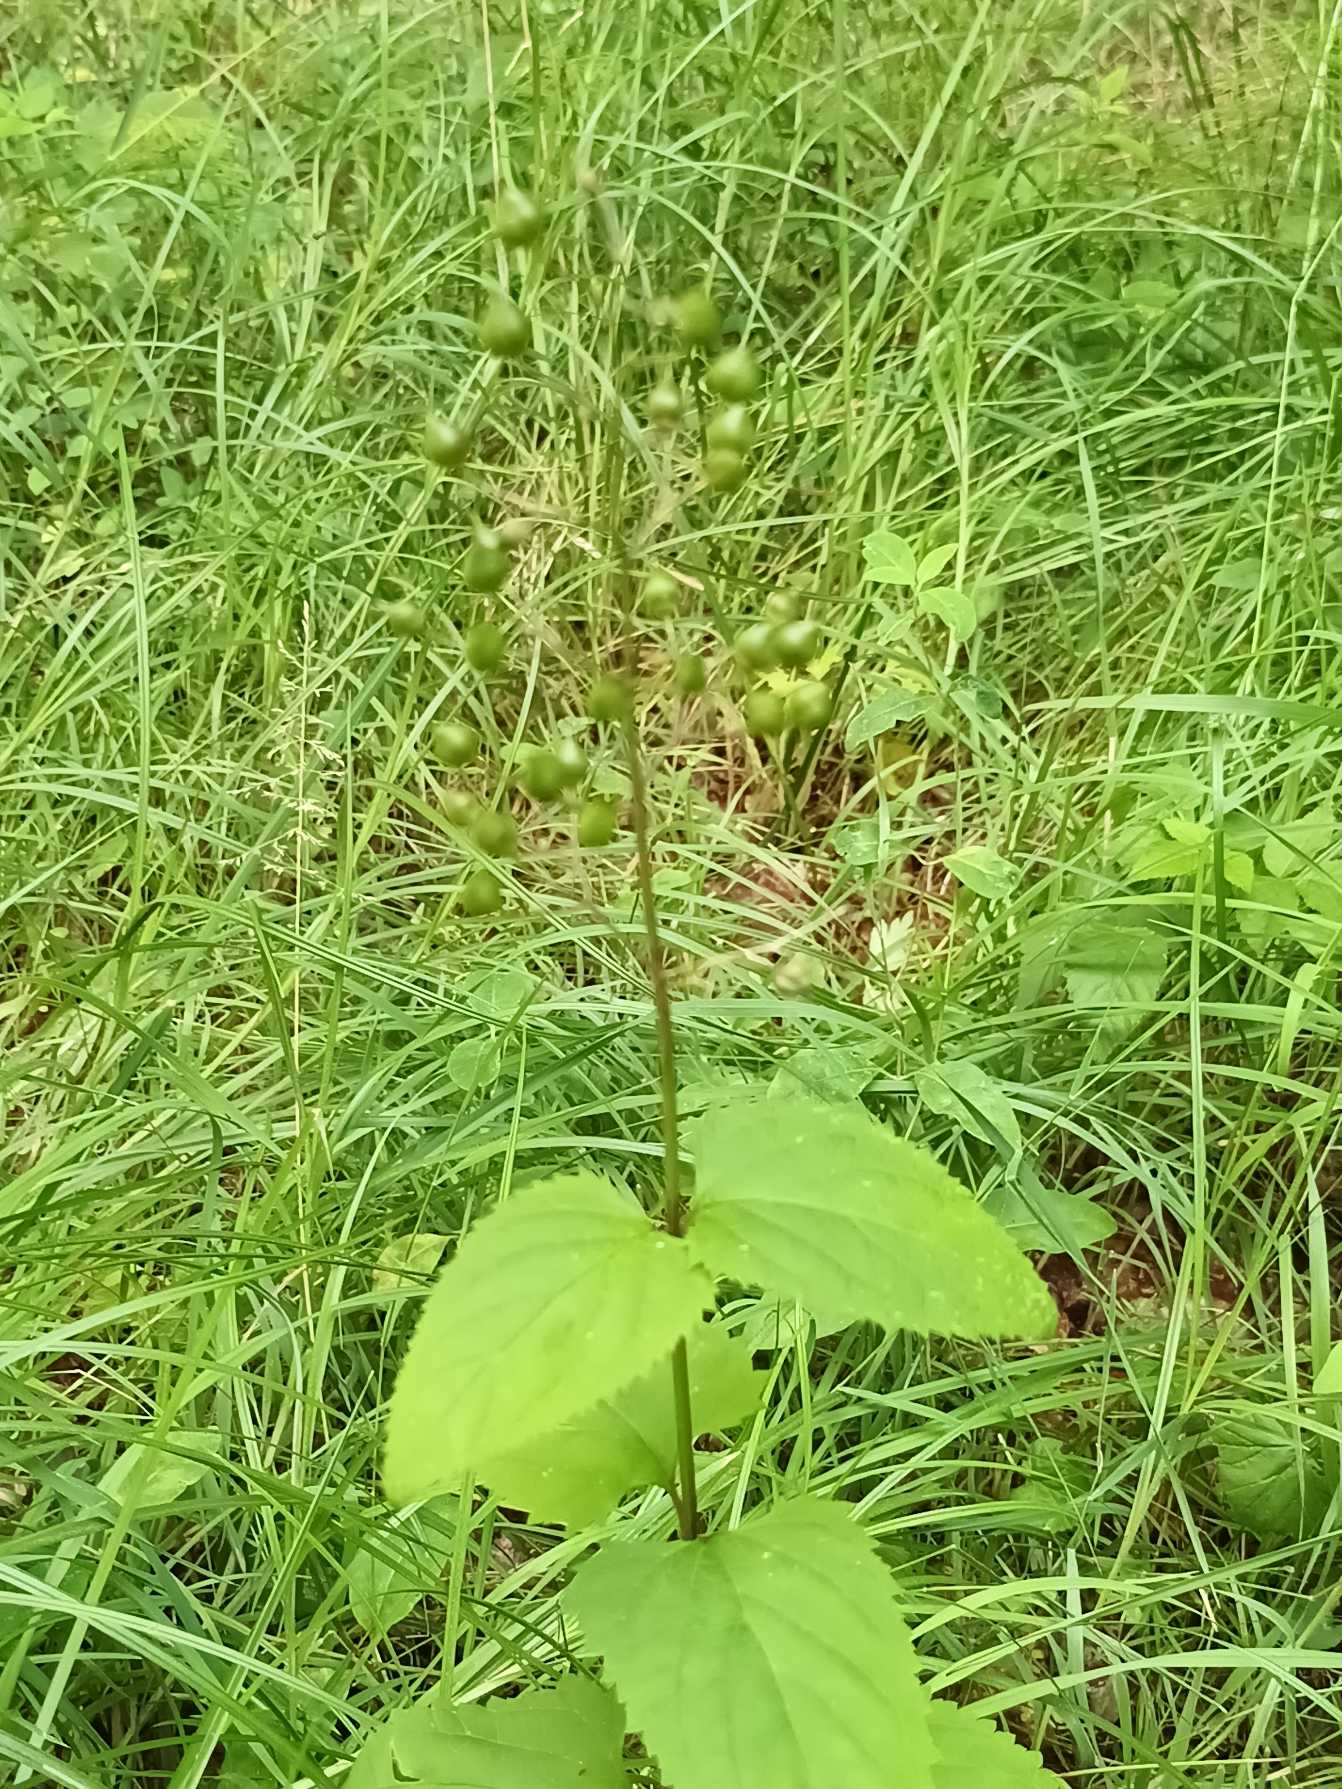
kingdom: Plantae
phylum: Tracheophyta
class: Magnoliopsida
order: Lamiales
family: Scrophulariaceae
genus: Scrophularia
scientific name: Scrophularia nodosa
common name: Knoldet brunrod
